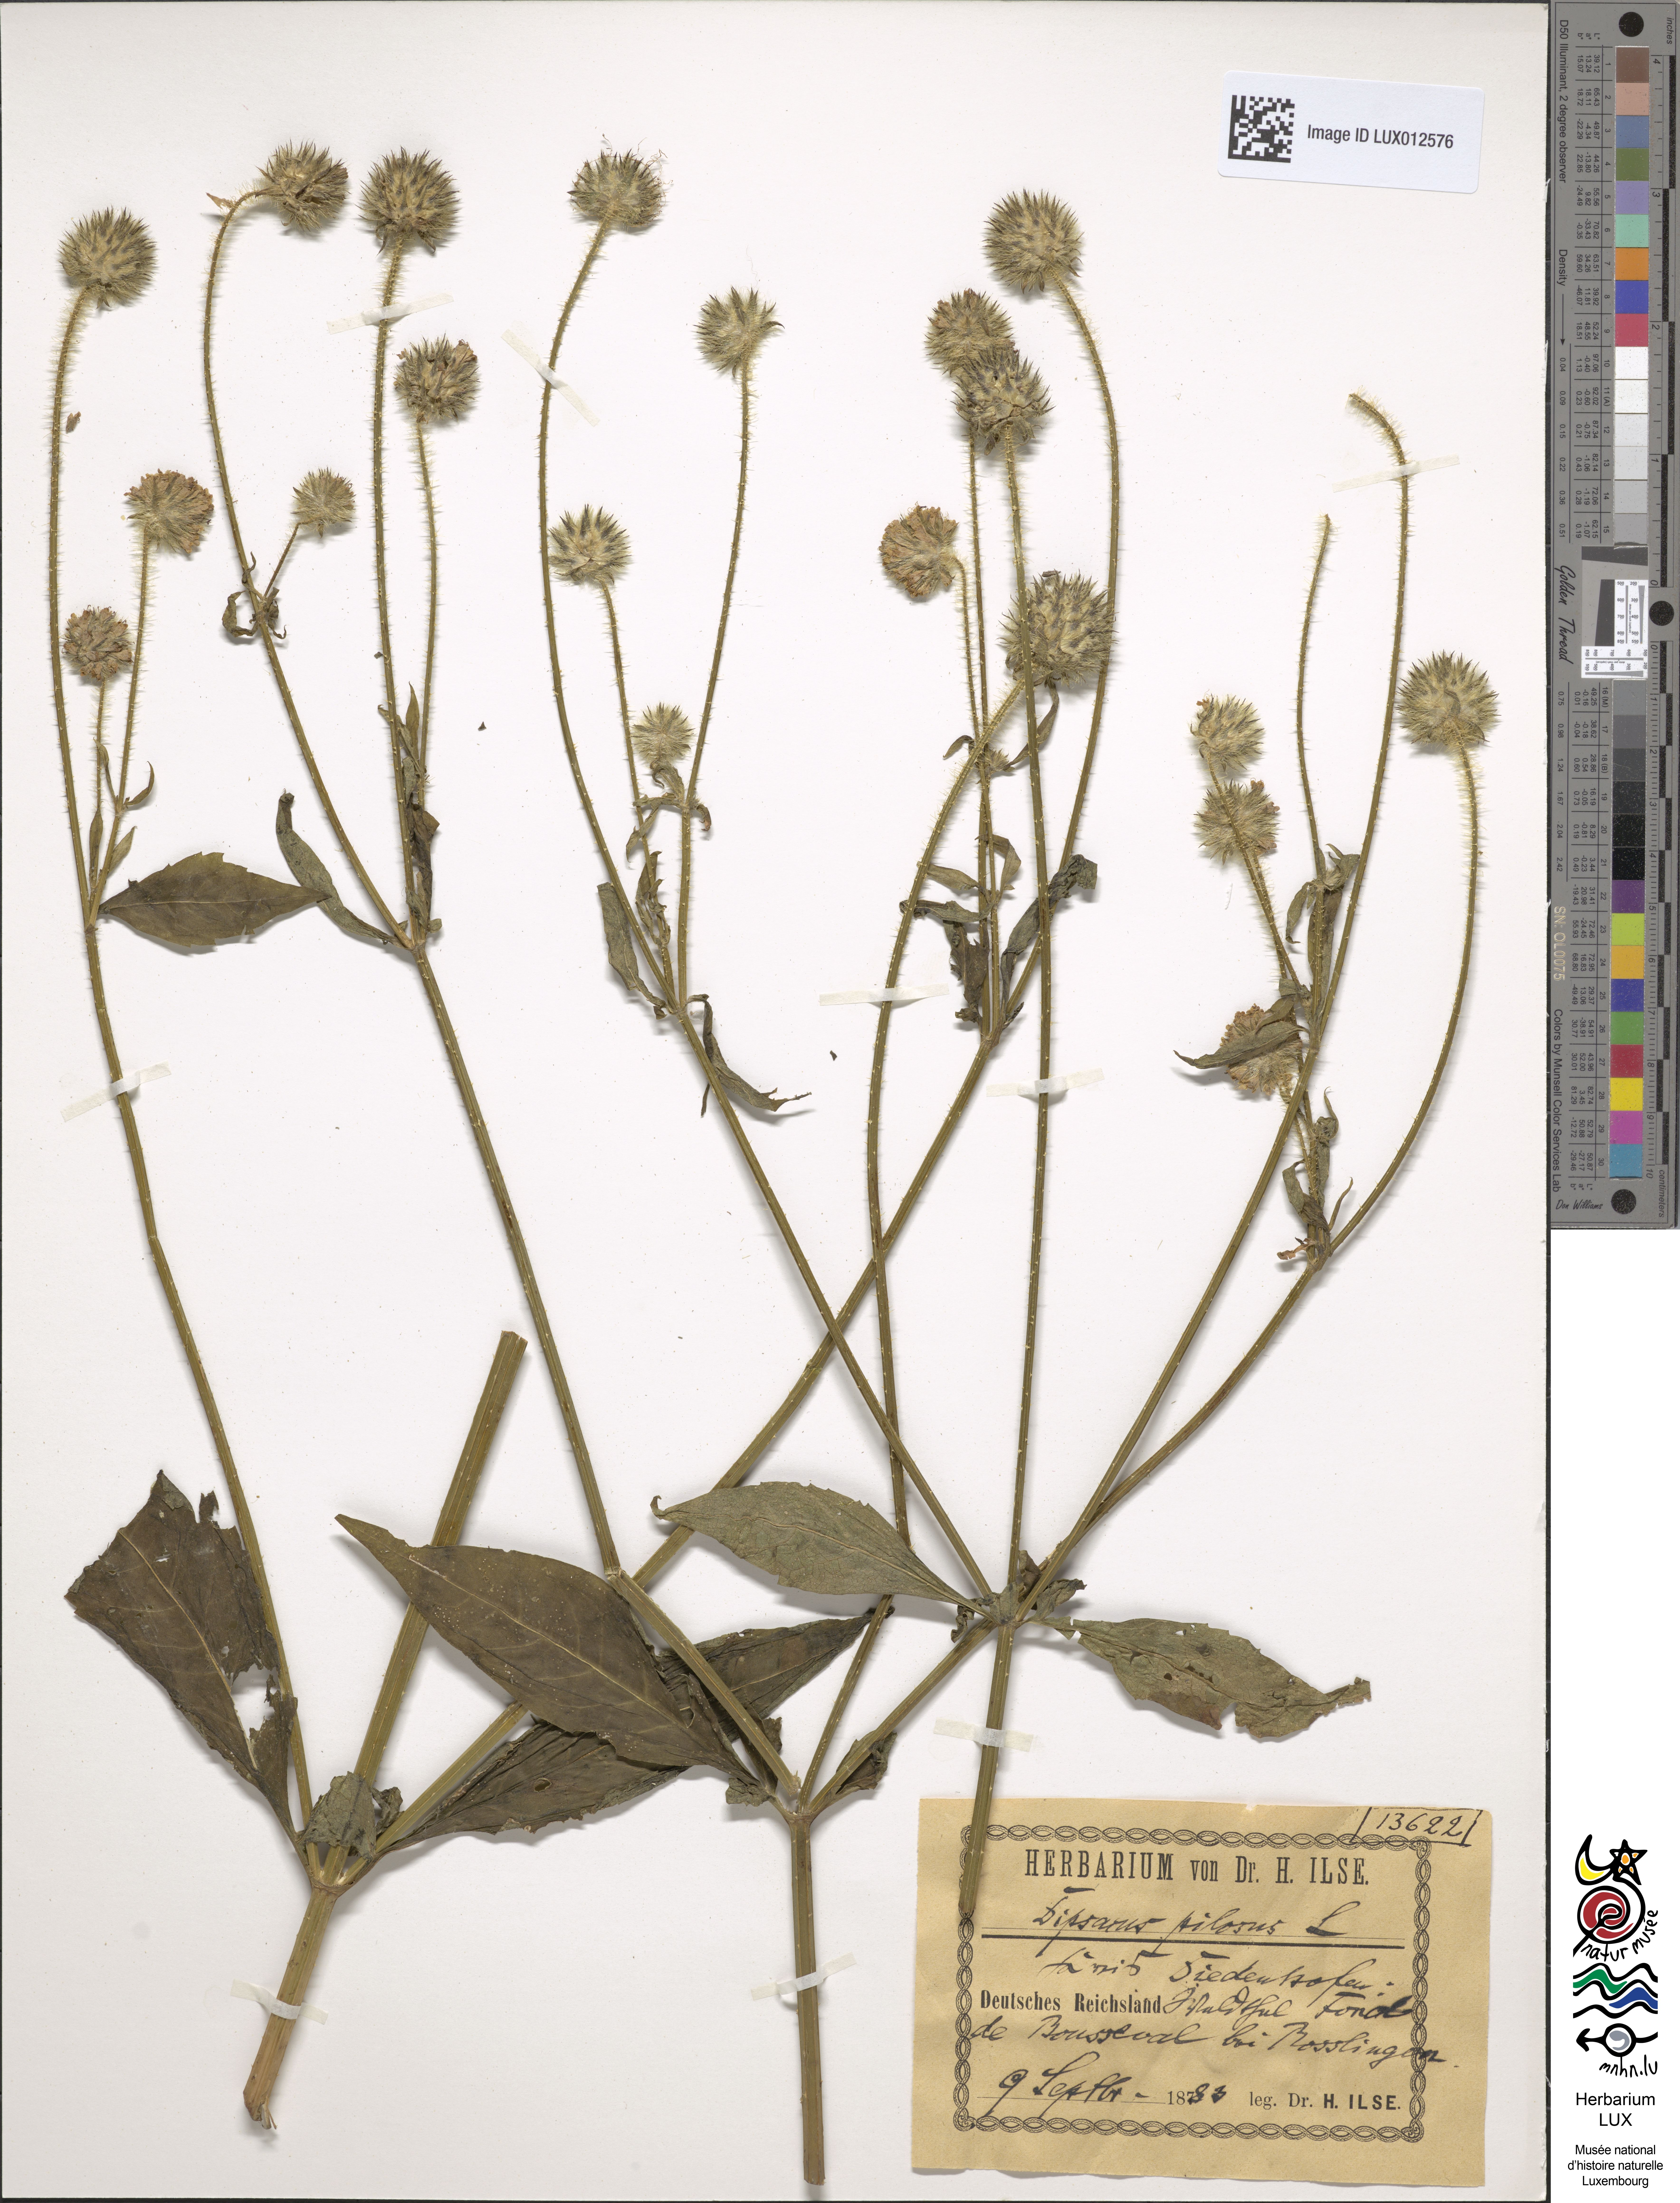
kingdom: Plantae
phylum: Tracheophyta
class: Magnoliopsida
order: Dipsacales
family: Caprifoliaceae
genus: Dipsacus
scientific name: Dipsacus pilosus
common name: Small teasel
